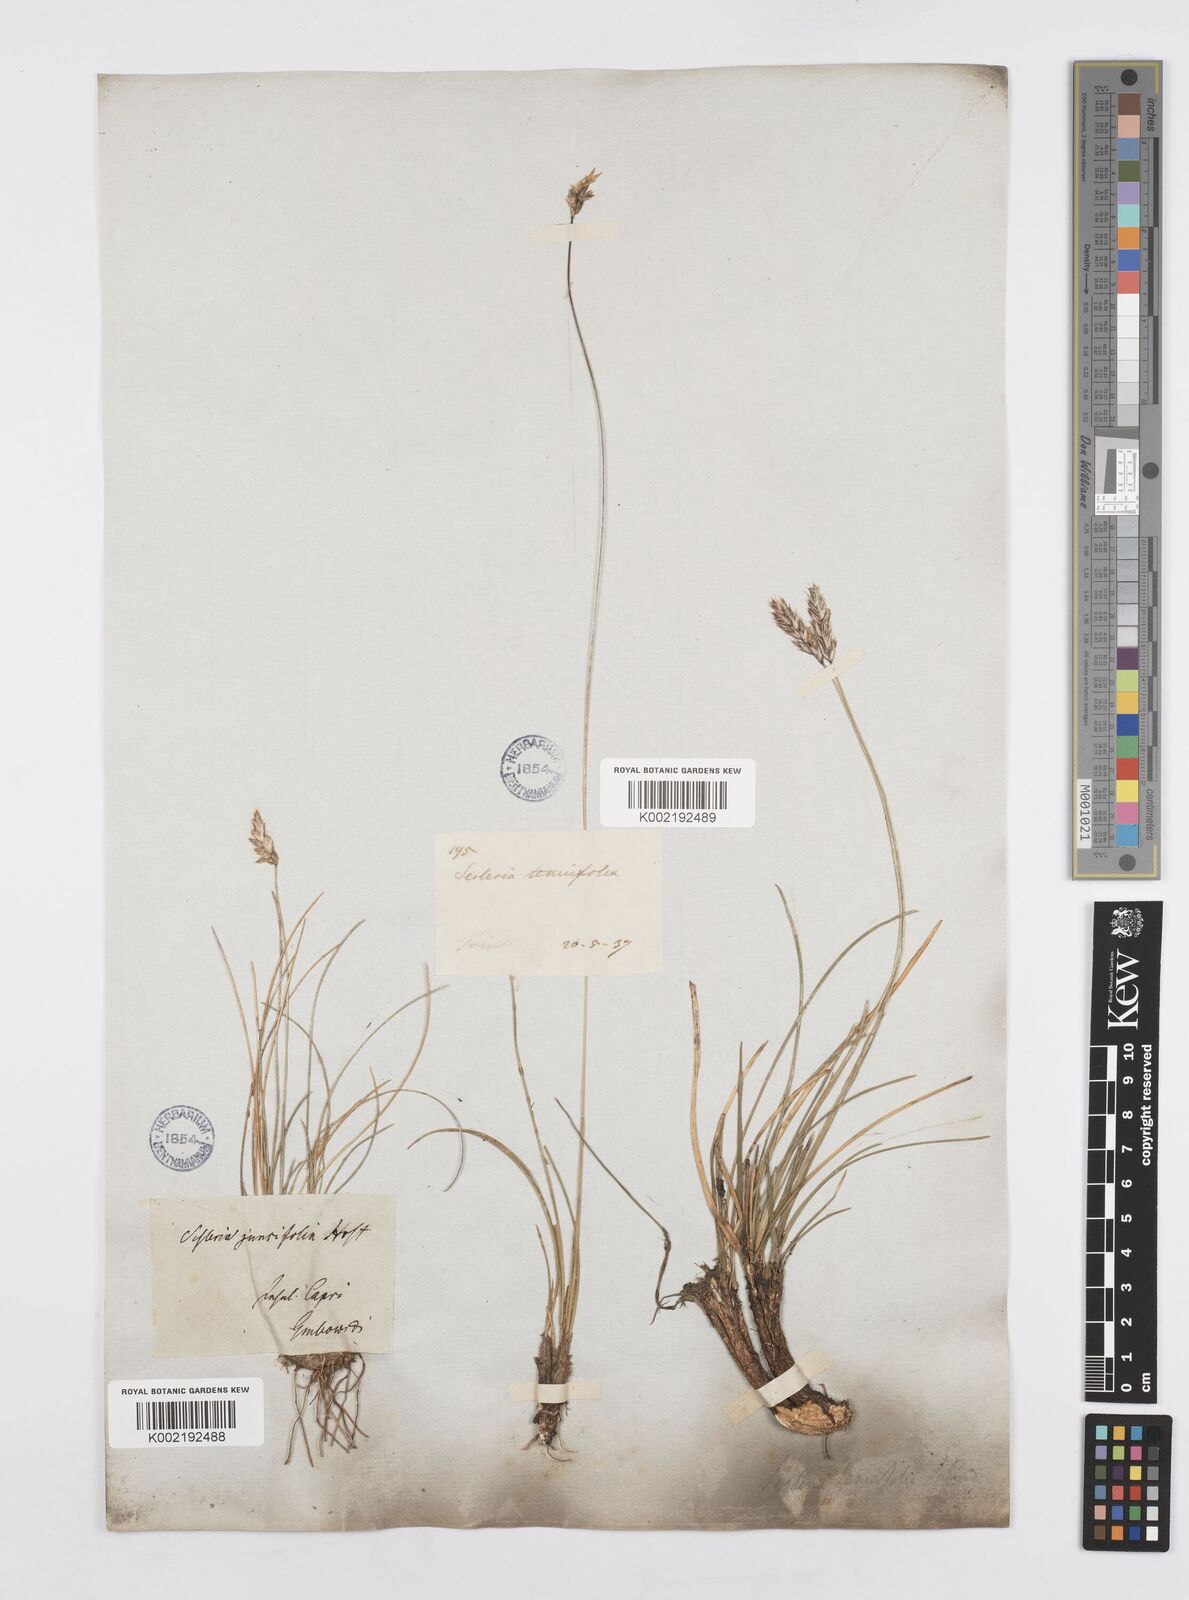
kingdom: Plantae
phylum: Tracheophyta
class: Liliopsida
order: Poales
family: Poaceae
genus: Sesleria
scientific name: Sesleria juncifolia
